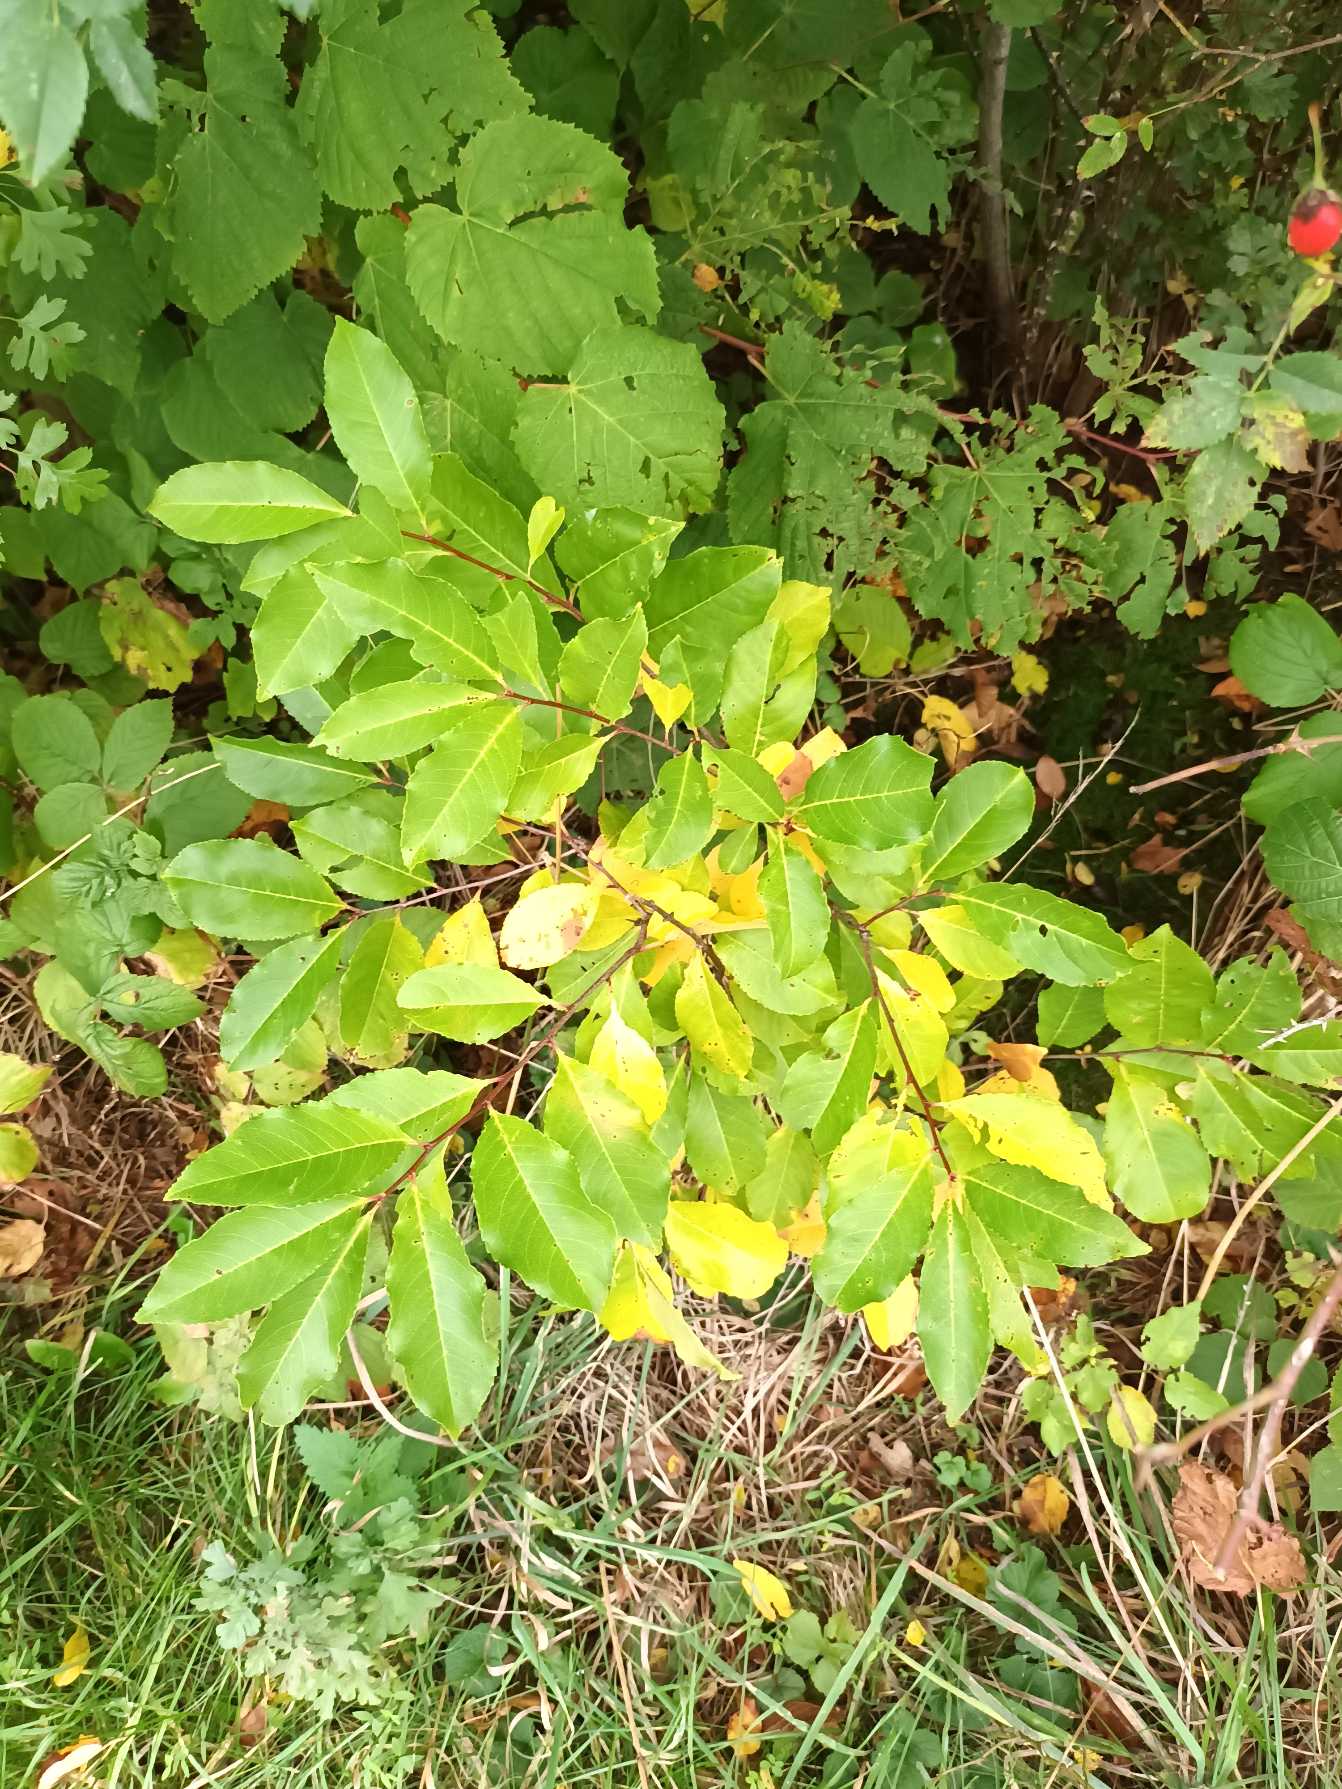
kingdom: Plantae
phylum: Tracheophyta
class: Magnoliopsida
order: Rosales
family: Rosaceae
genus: Prunus
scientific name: Prunus serotina
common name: Glansbladet hæg
